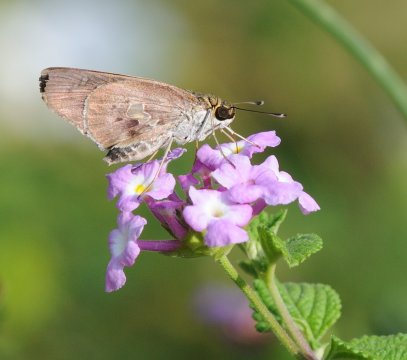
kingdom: Animalia
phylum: Arthropoda
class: Insecta
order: Lepidoptera
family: Hesperiidae
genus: Andronymus
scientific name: Andronymus neander
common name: Nomad Dart
